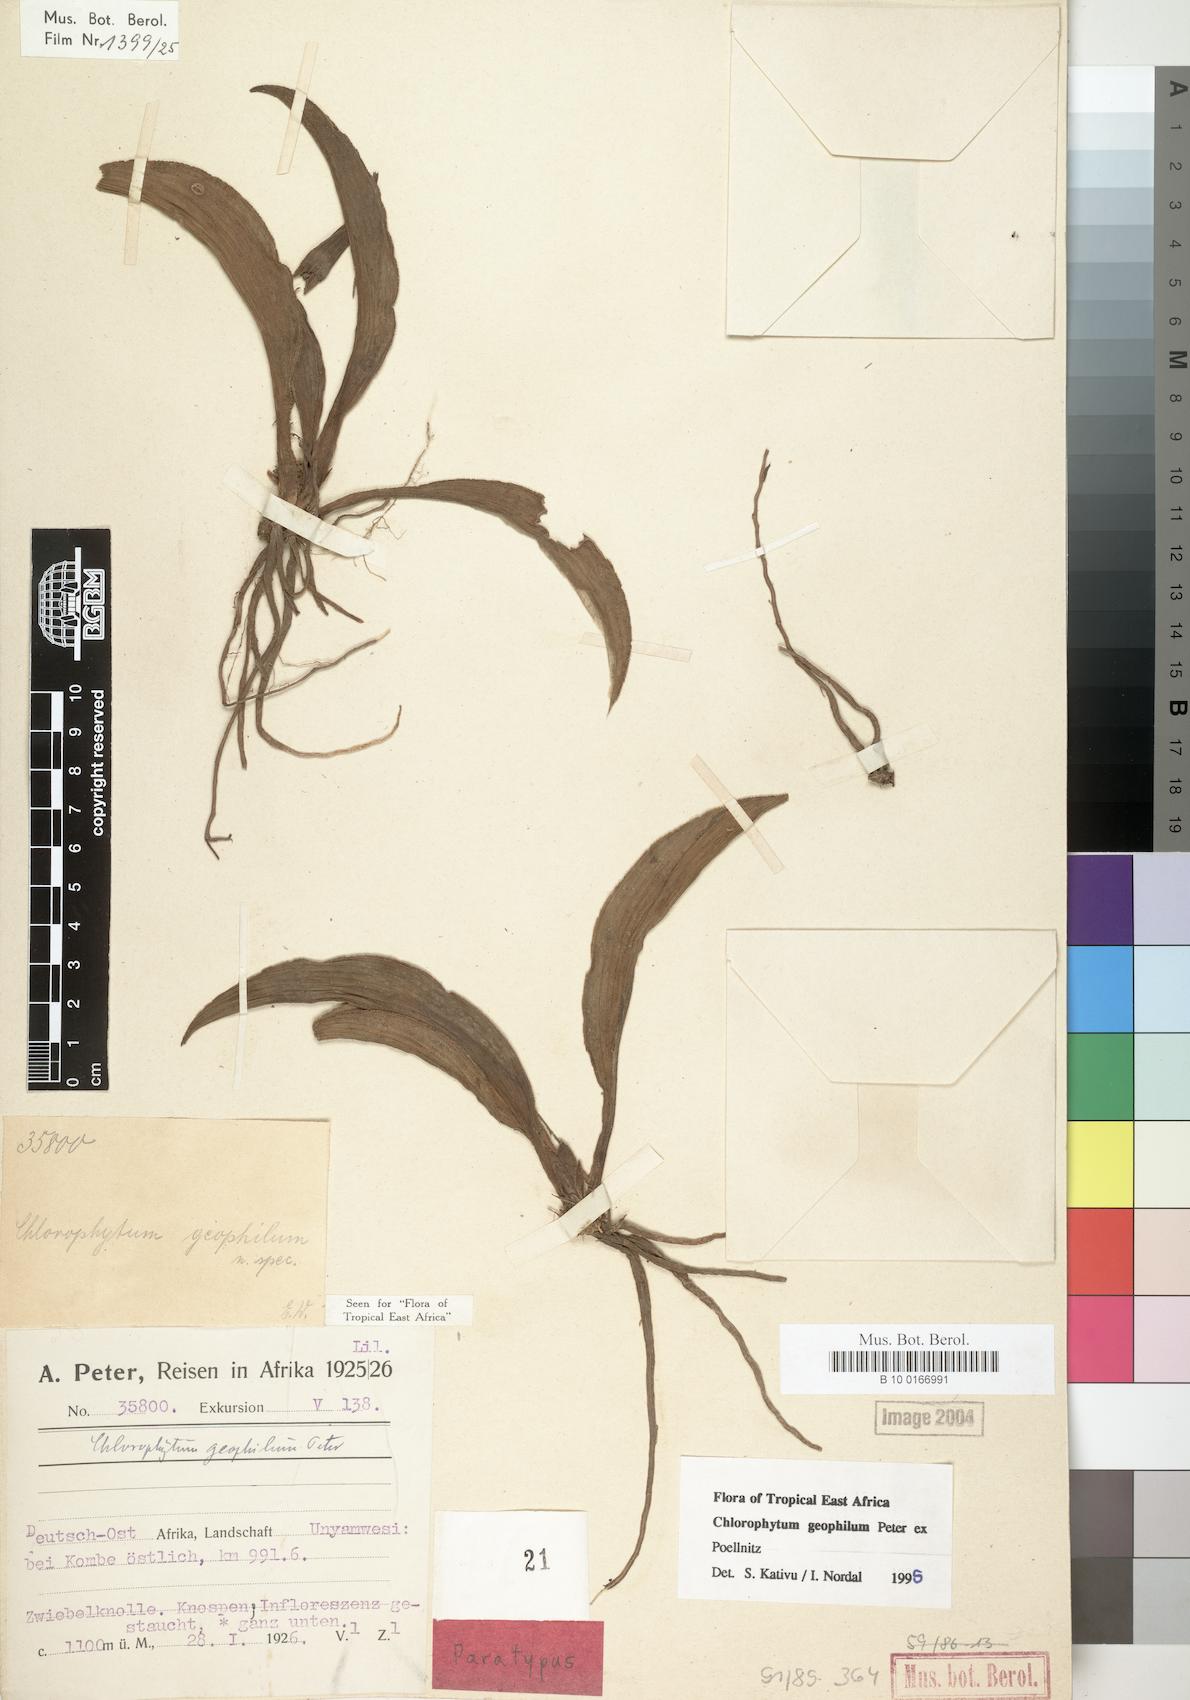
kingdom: Plantae
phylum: Tracheophyta
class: Liliopsida
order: Asparagales
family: Asparagaceae
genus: Chlorophytum
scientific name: Chlorophytum geophilum
